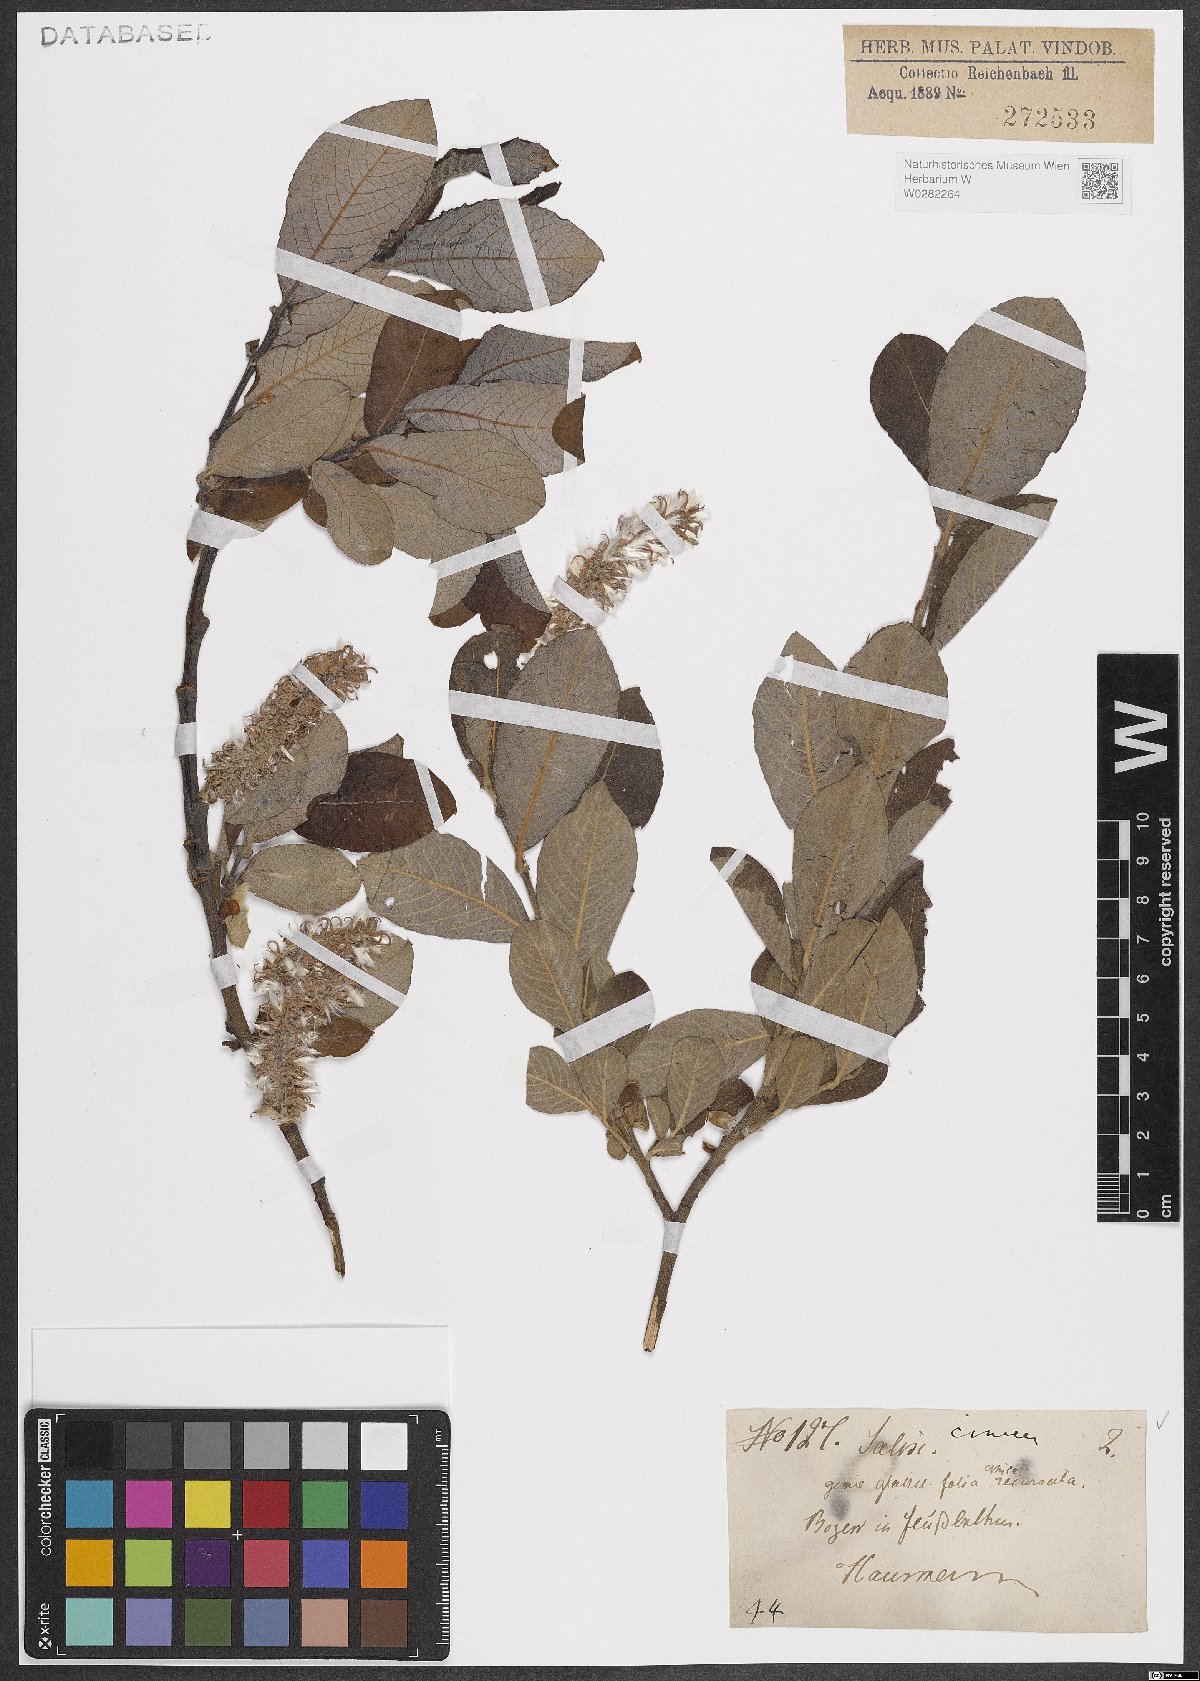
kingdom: Plantae
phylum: Tracheophyta
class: Magnoliopsida
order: Malpighiales
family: Salicaceae
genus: Salix
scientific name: Salix cinerea
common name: Common sallow
